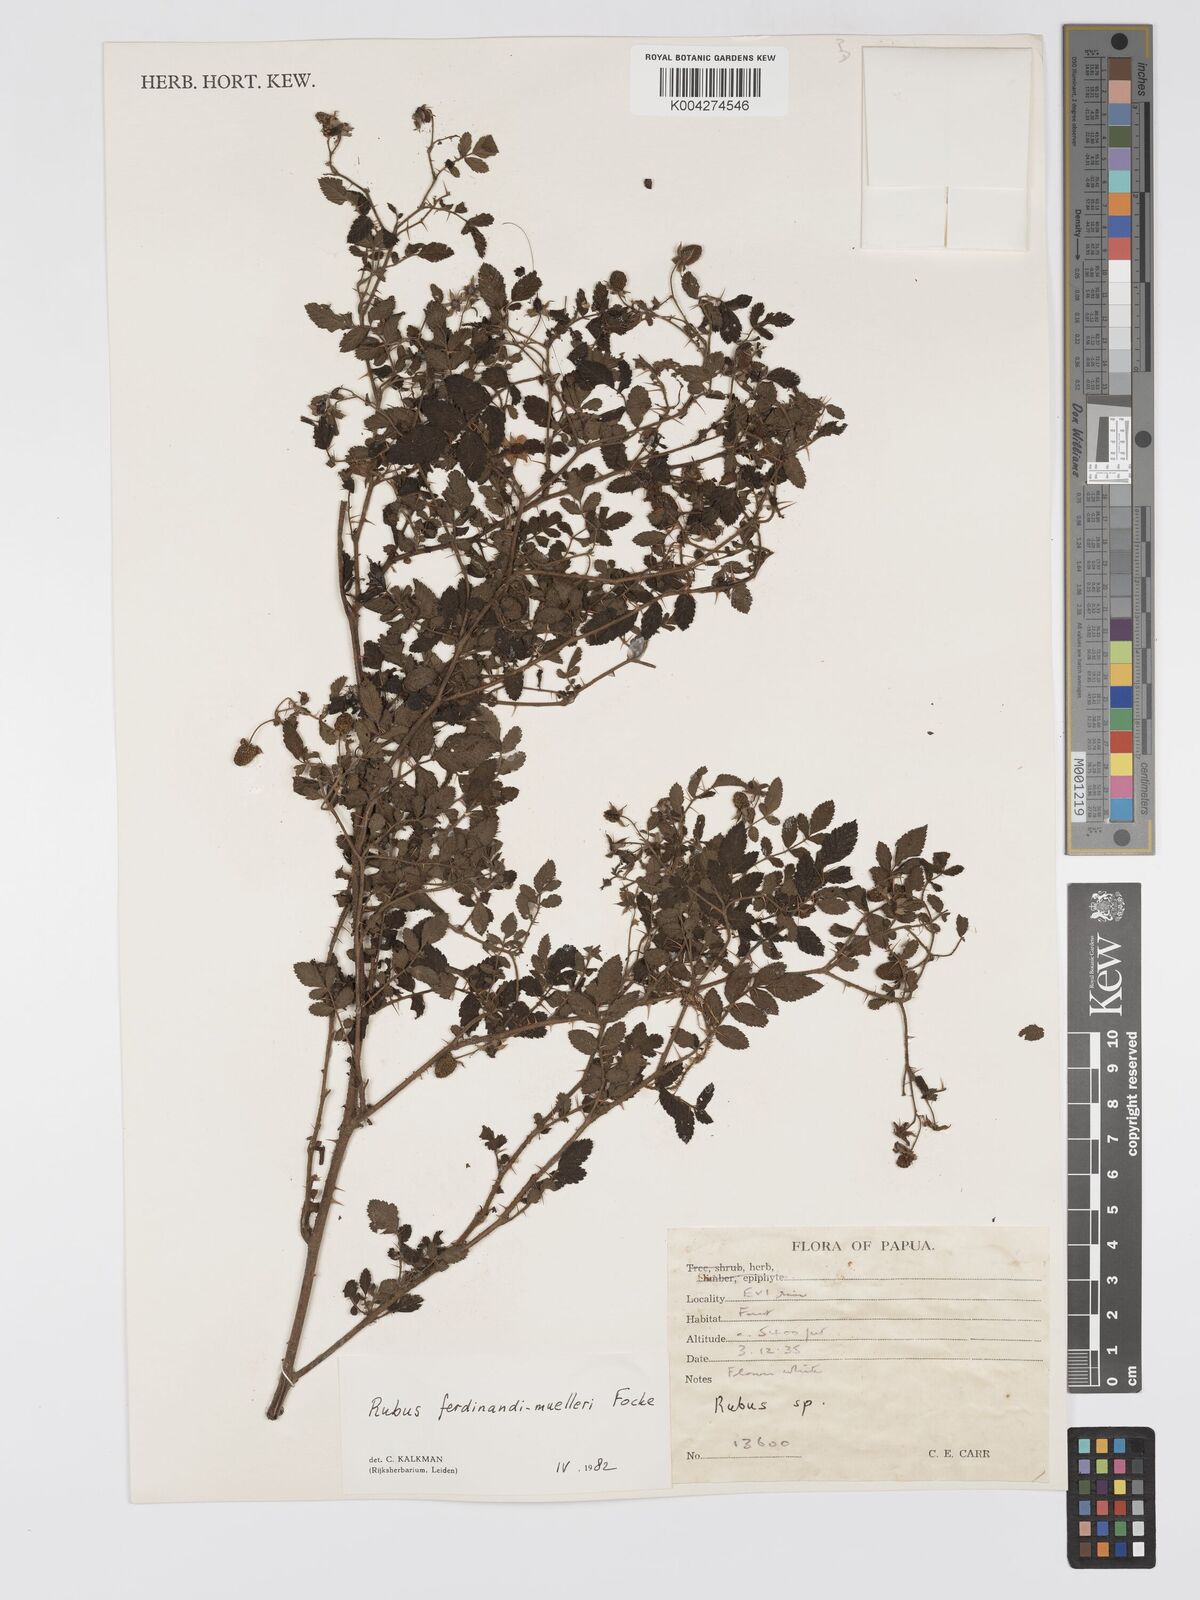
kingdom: Plantae
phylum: Tracheophyta
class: Magnoliopsida
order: Rosales
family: Rosaceae
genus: Rubus
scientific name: Rubus ferdinandimuelleri
